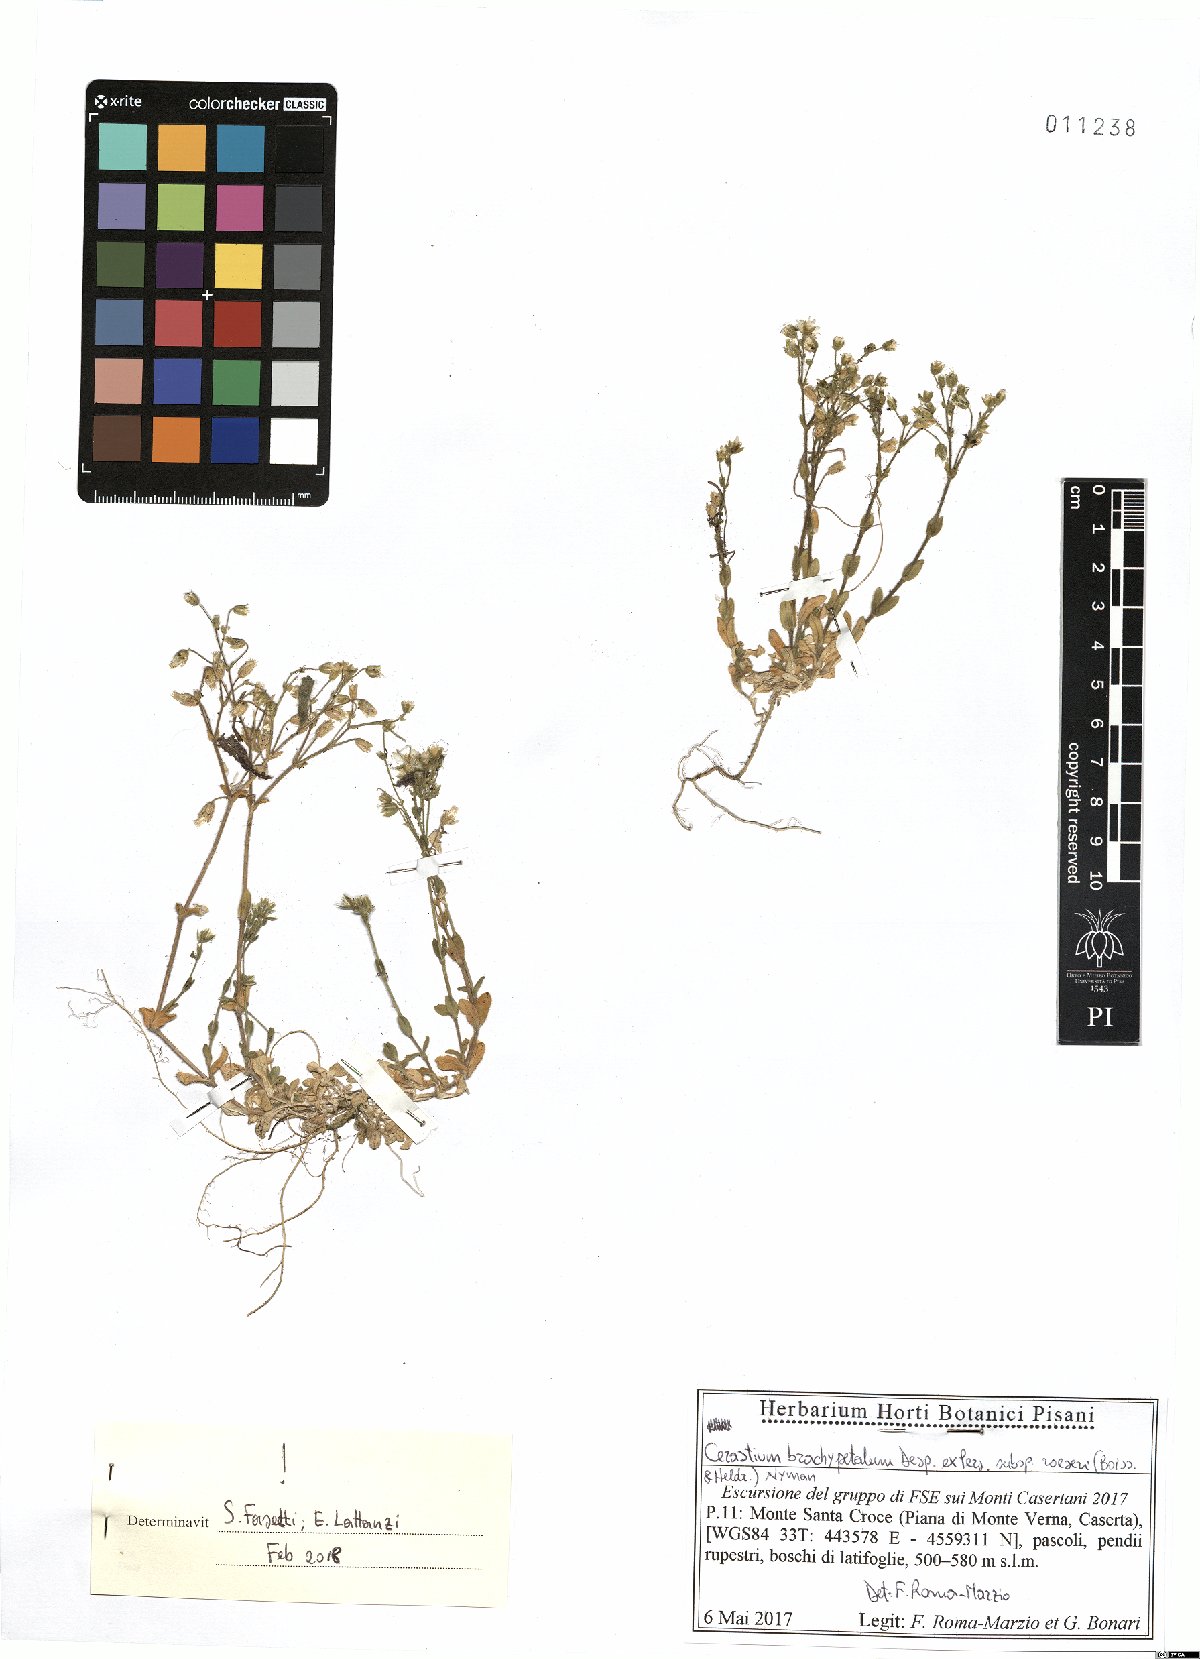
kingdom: Plantae
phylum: Tracheophyta
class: Magnoliopsida
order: Caryophyllales
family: Caryophyllaceae
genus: Cerastium
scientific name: Cerastium brachypetalum
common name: Grey mouse-ear
